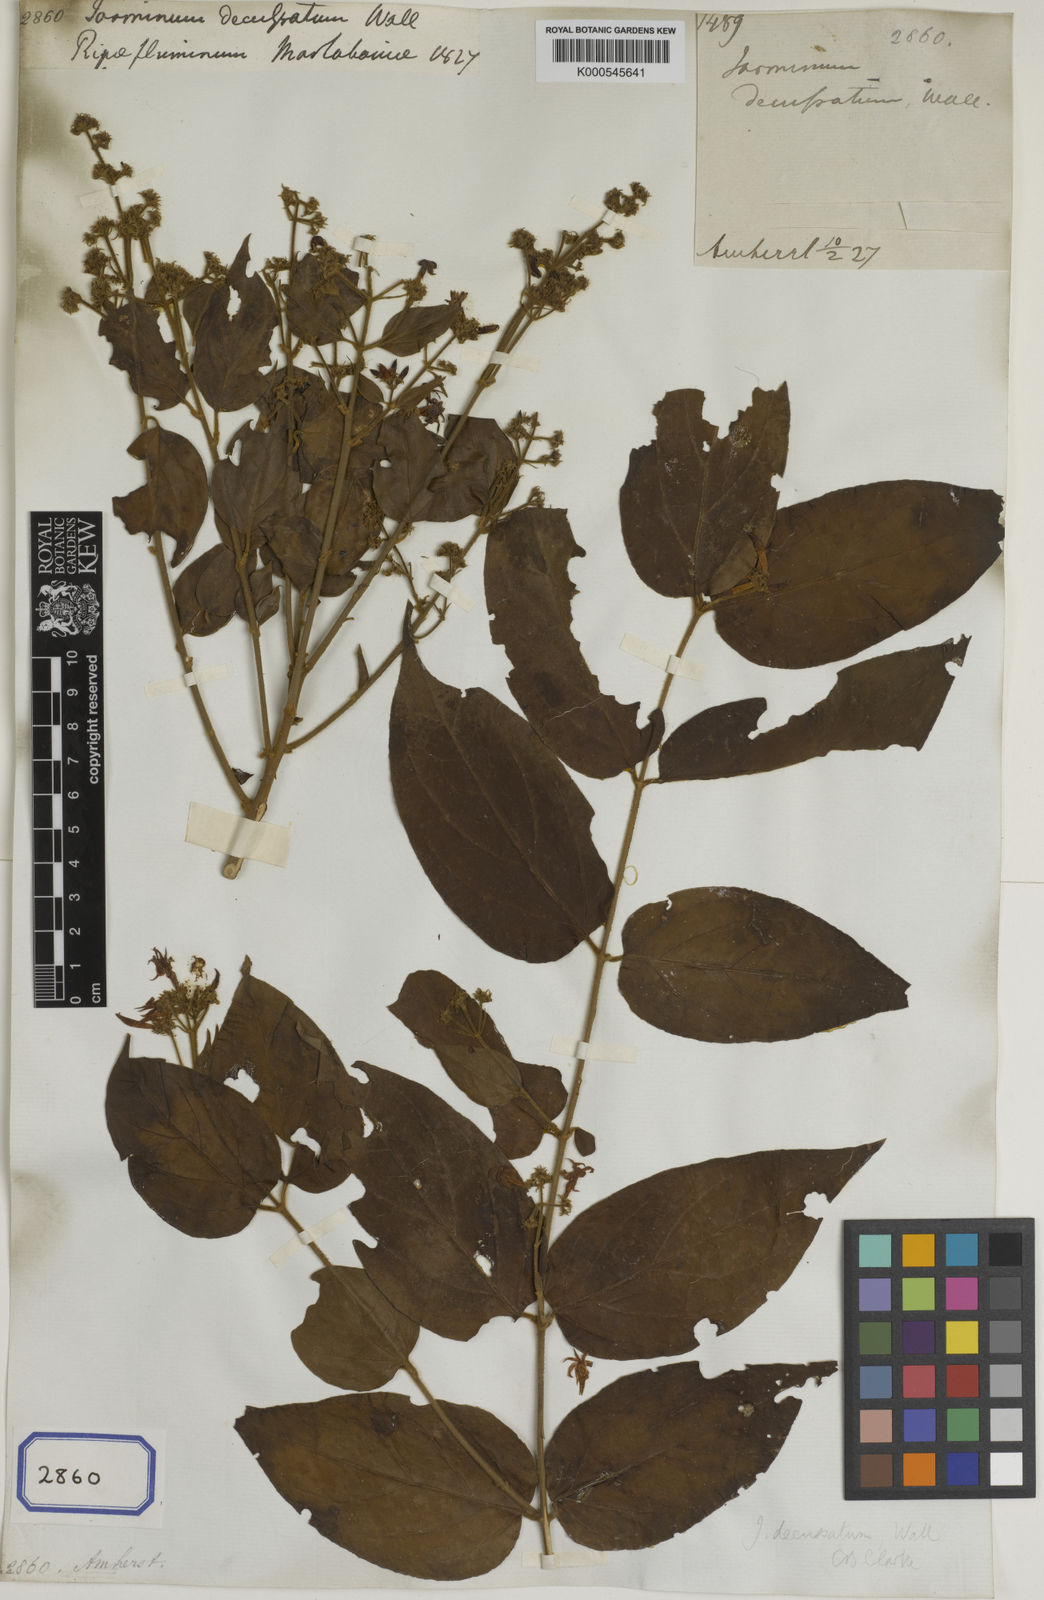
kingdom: Plantae
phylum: Tracheophyta
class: Magnoliopsida
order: Lamiales
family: Oleaceae
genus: Jasminum
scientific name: Jasminum scandens
